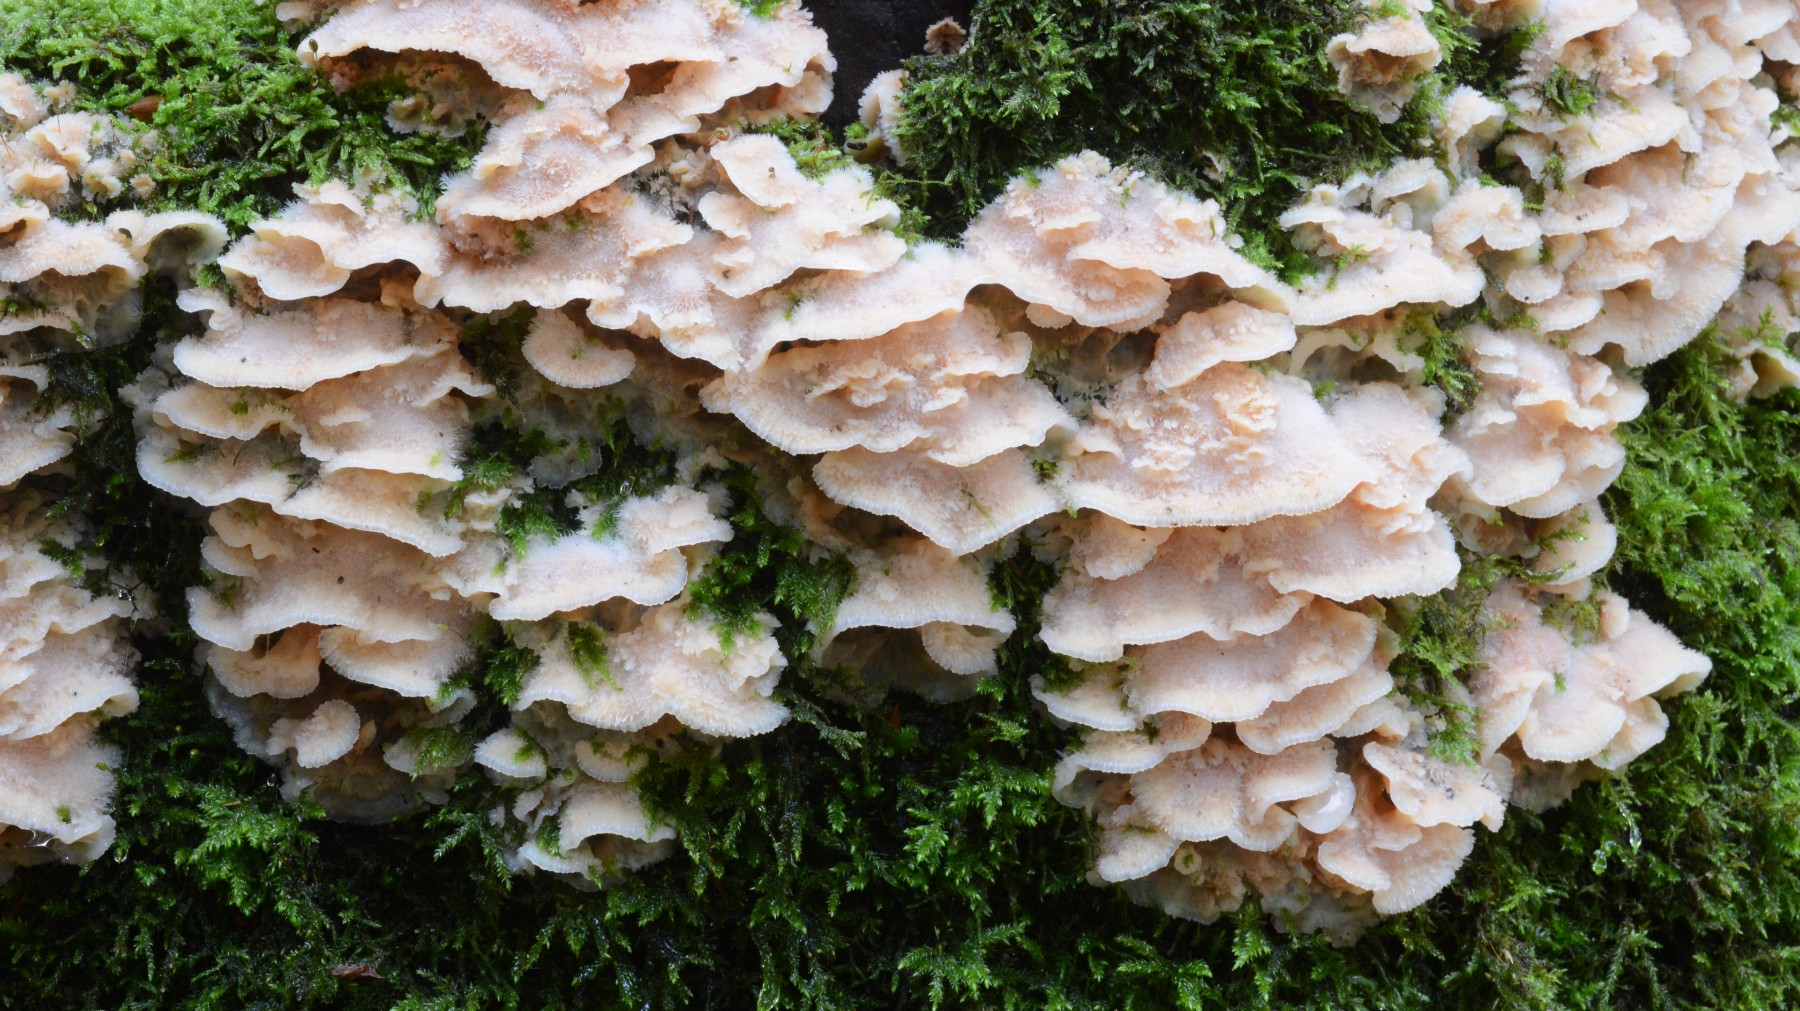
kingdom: Fungi
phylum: Basidiomycota
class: Agaricomycetes
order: Polyporales
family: Meruliaceae
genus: Phlebia
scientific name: Phlebia tremellosa
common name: bævrende åresvamp
